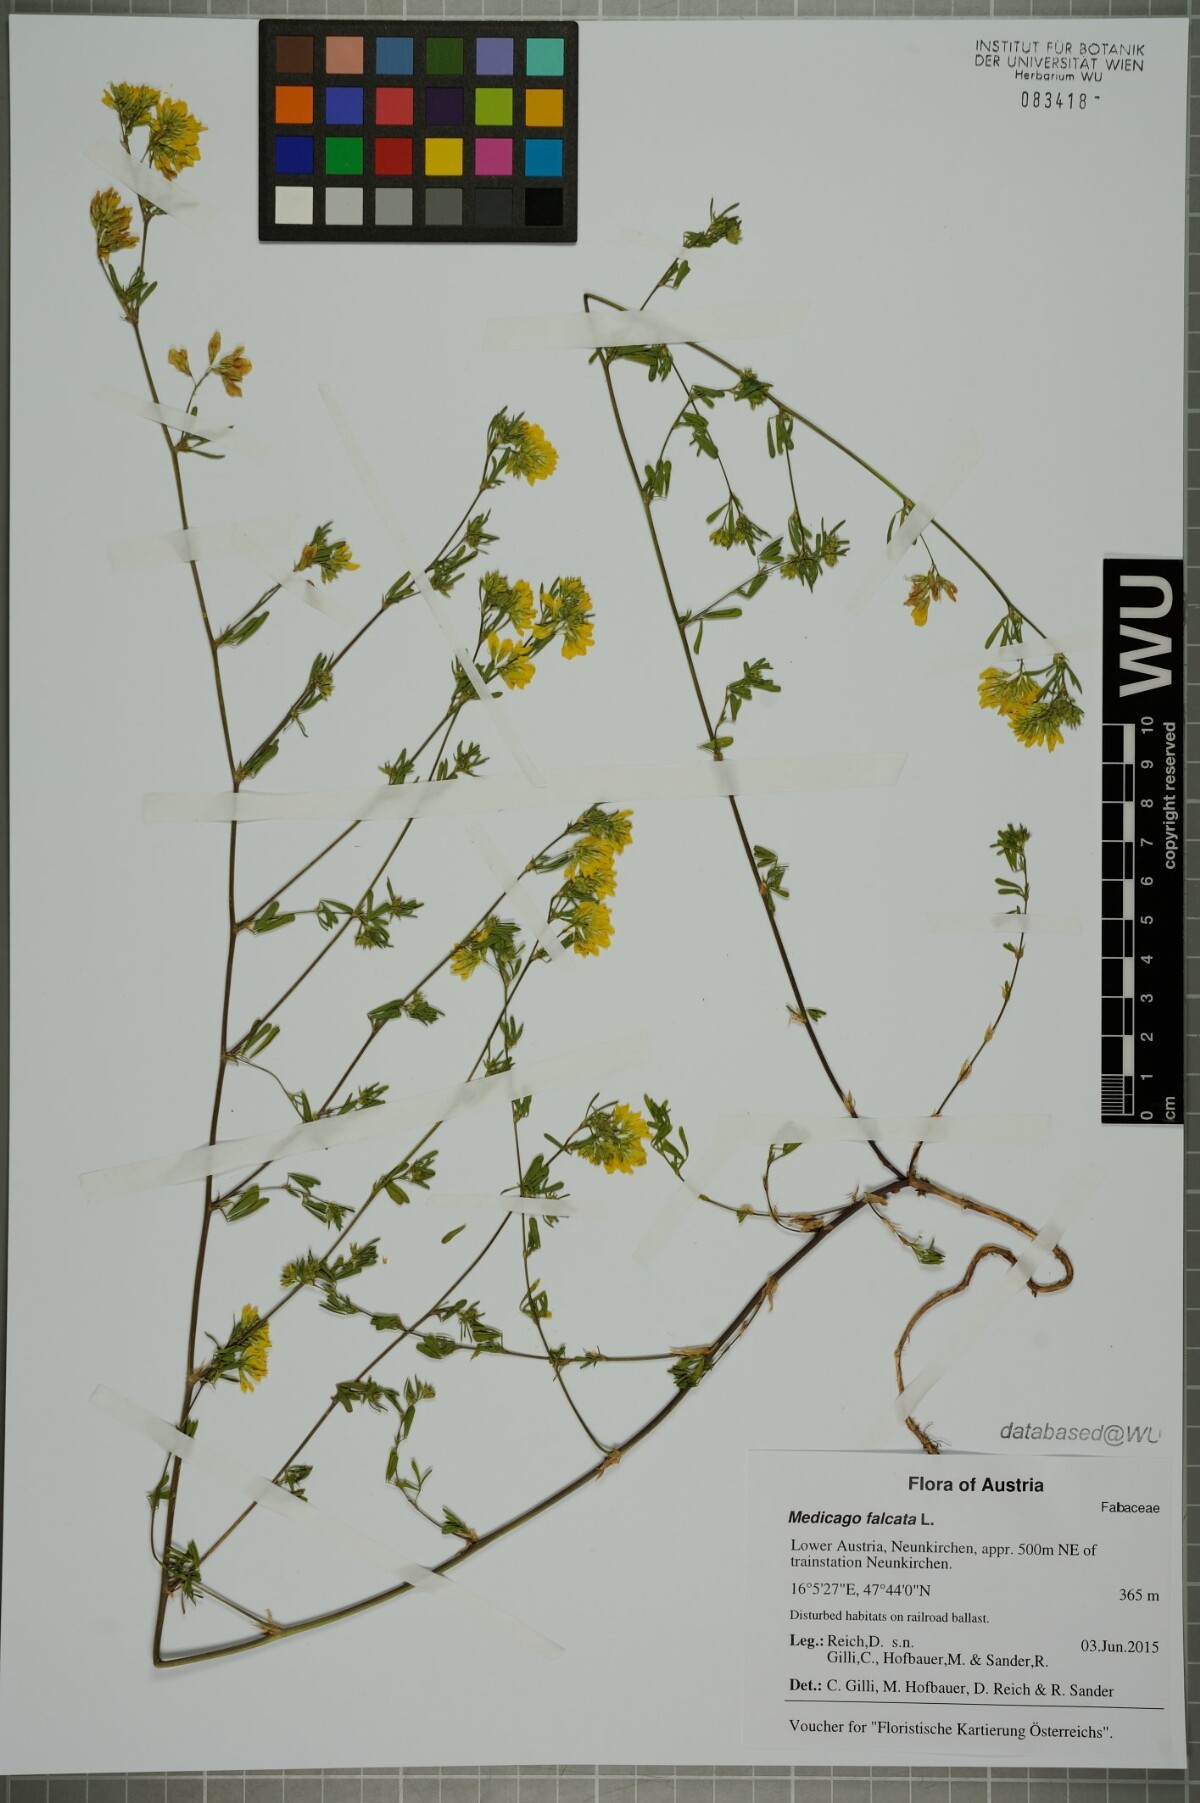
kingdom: Plantae
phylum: Tracheophyta
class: Magnoliopsida
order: Fabales
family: Fabaceae
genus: Medicago
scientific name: Medicago falcata
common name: Sickle medick
